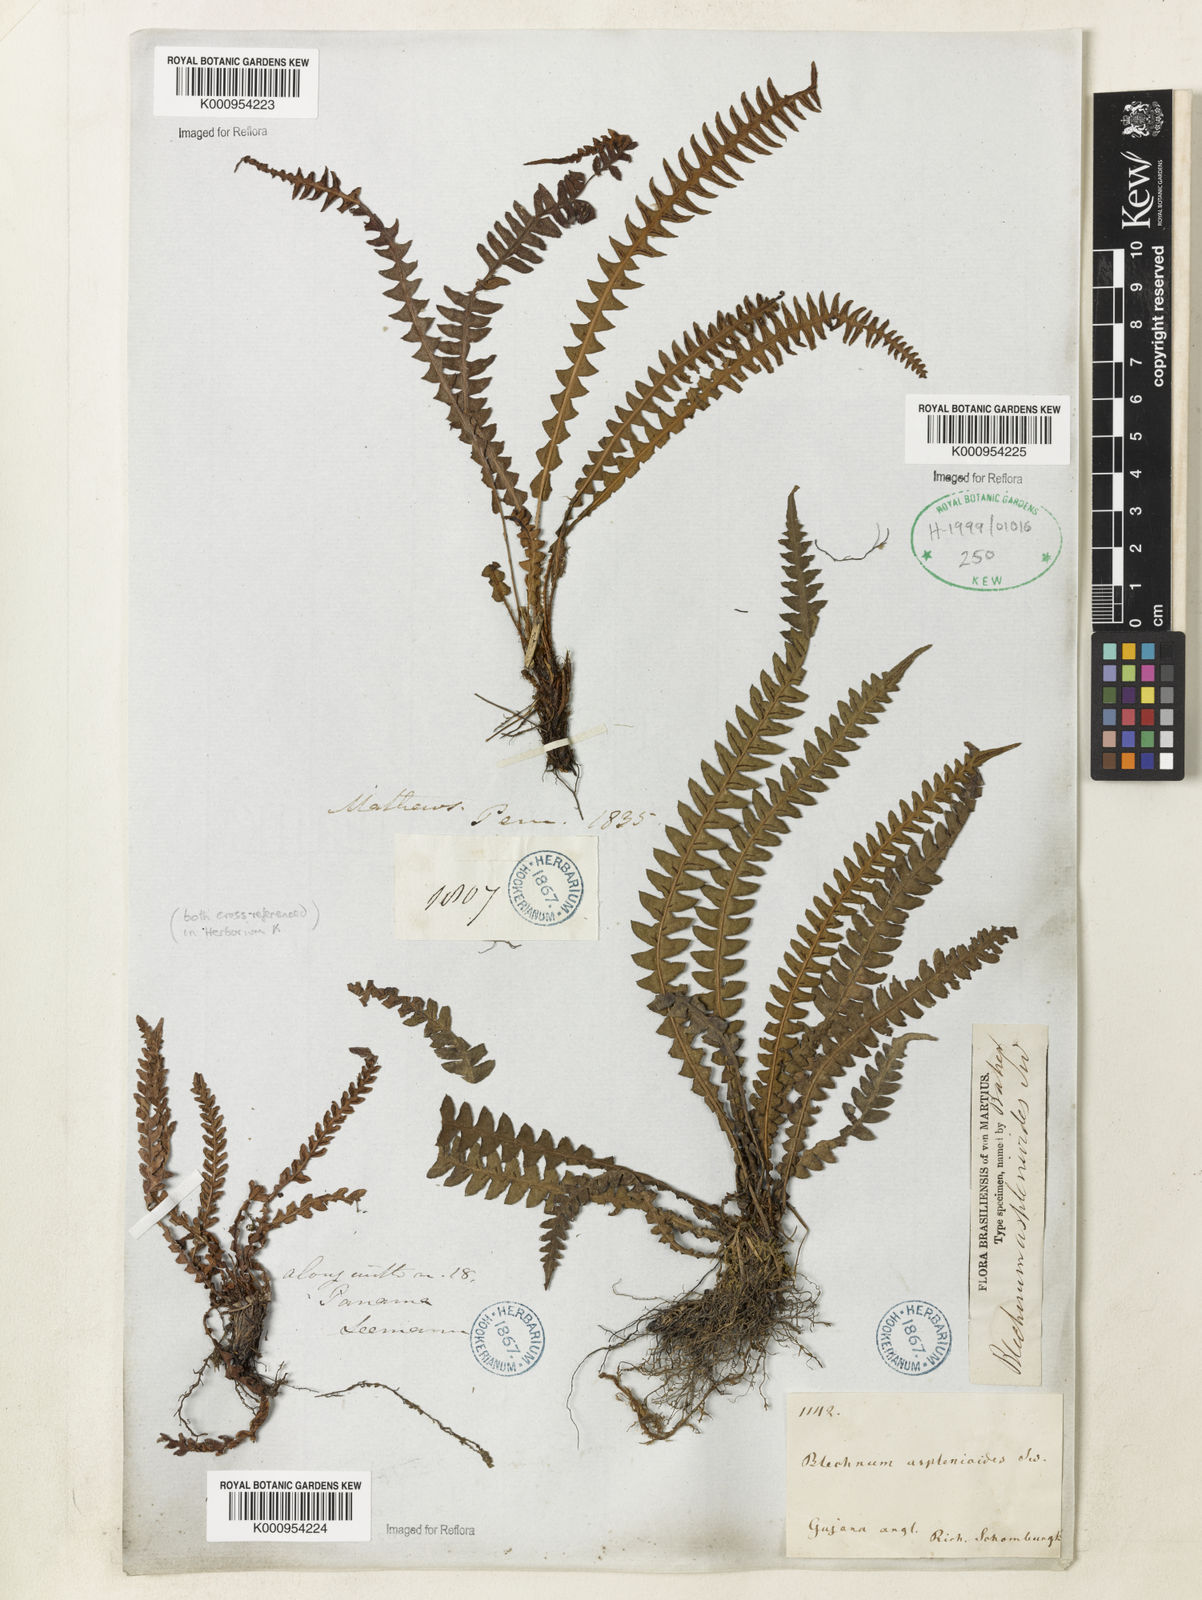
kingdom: Plantae
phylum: Tracheophyta
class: Polypodiopsida
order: Polypodiales
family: Blechnaceae
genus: Blechnum
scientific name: Blechnum asplenioides
